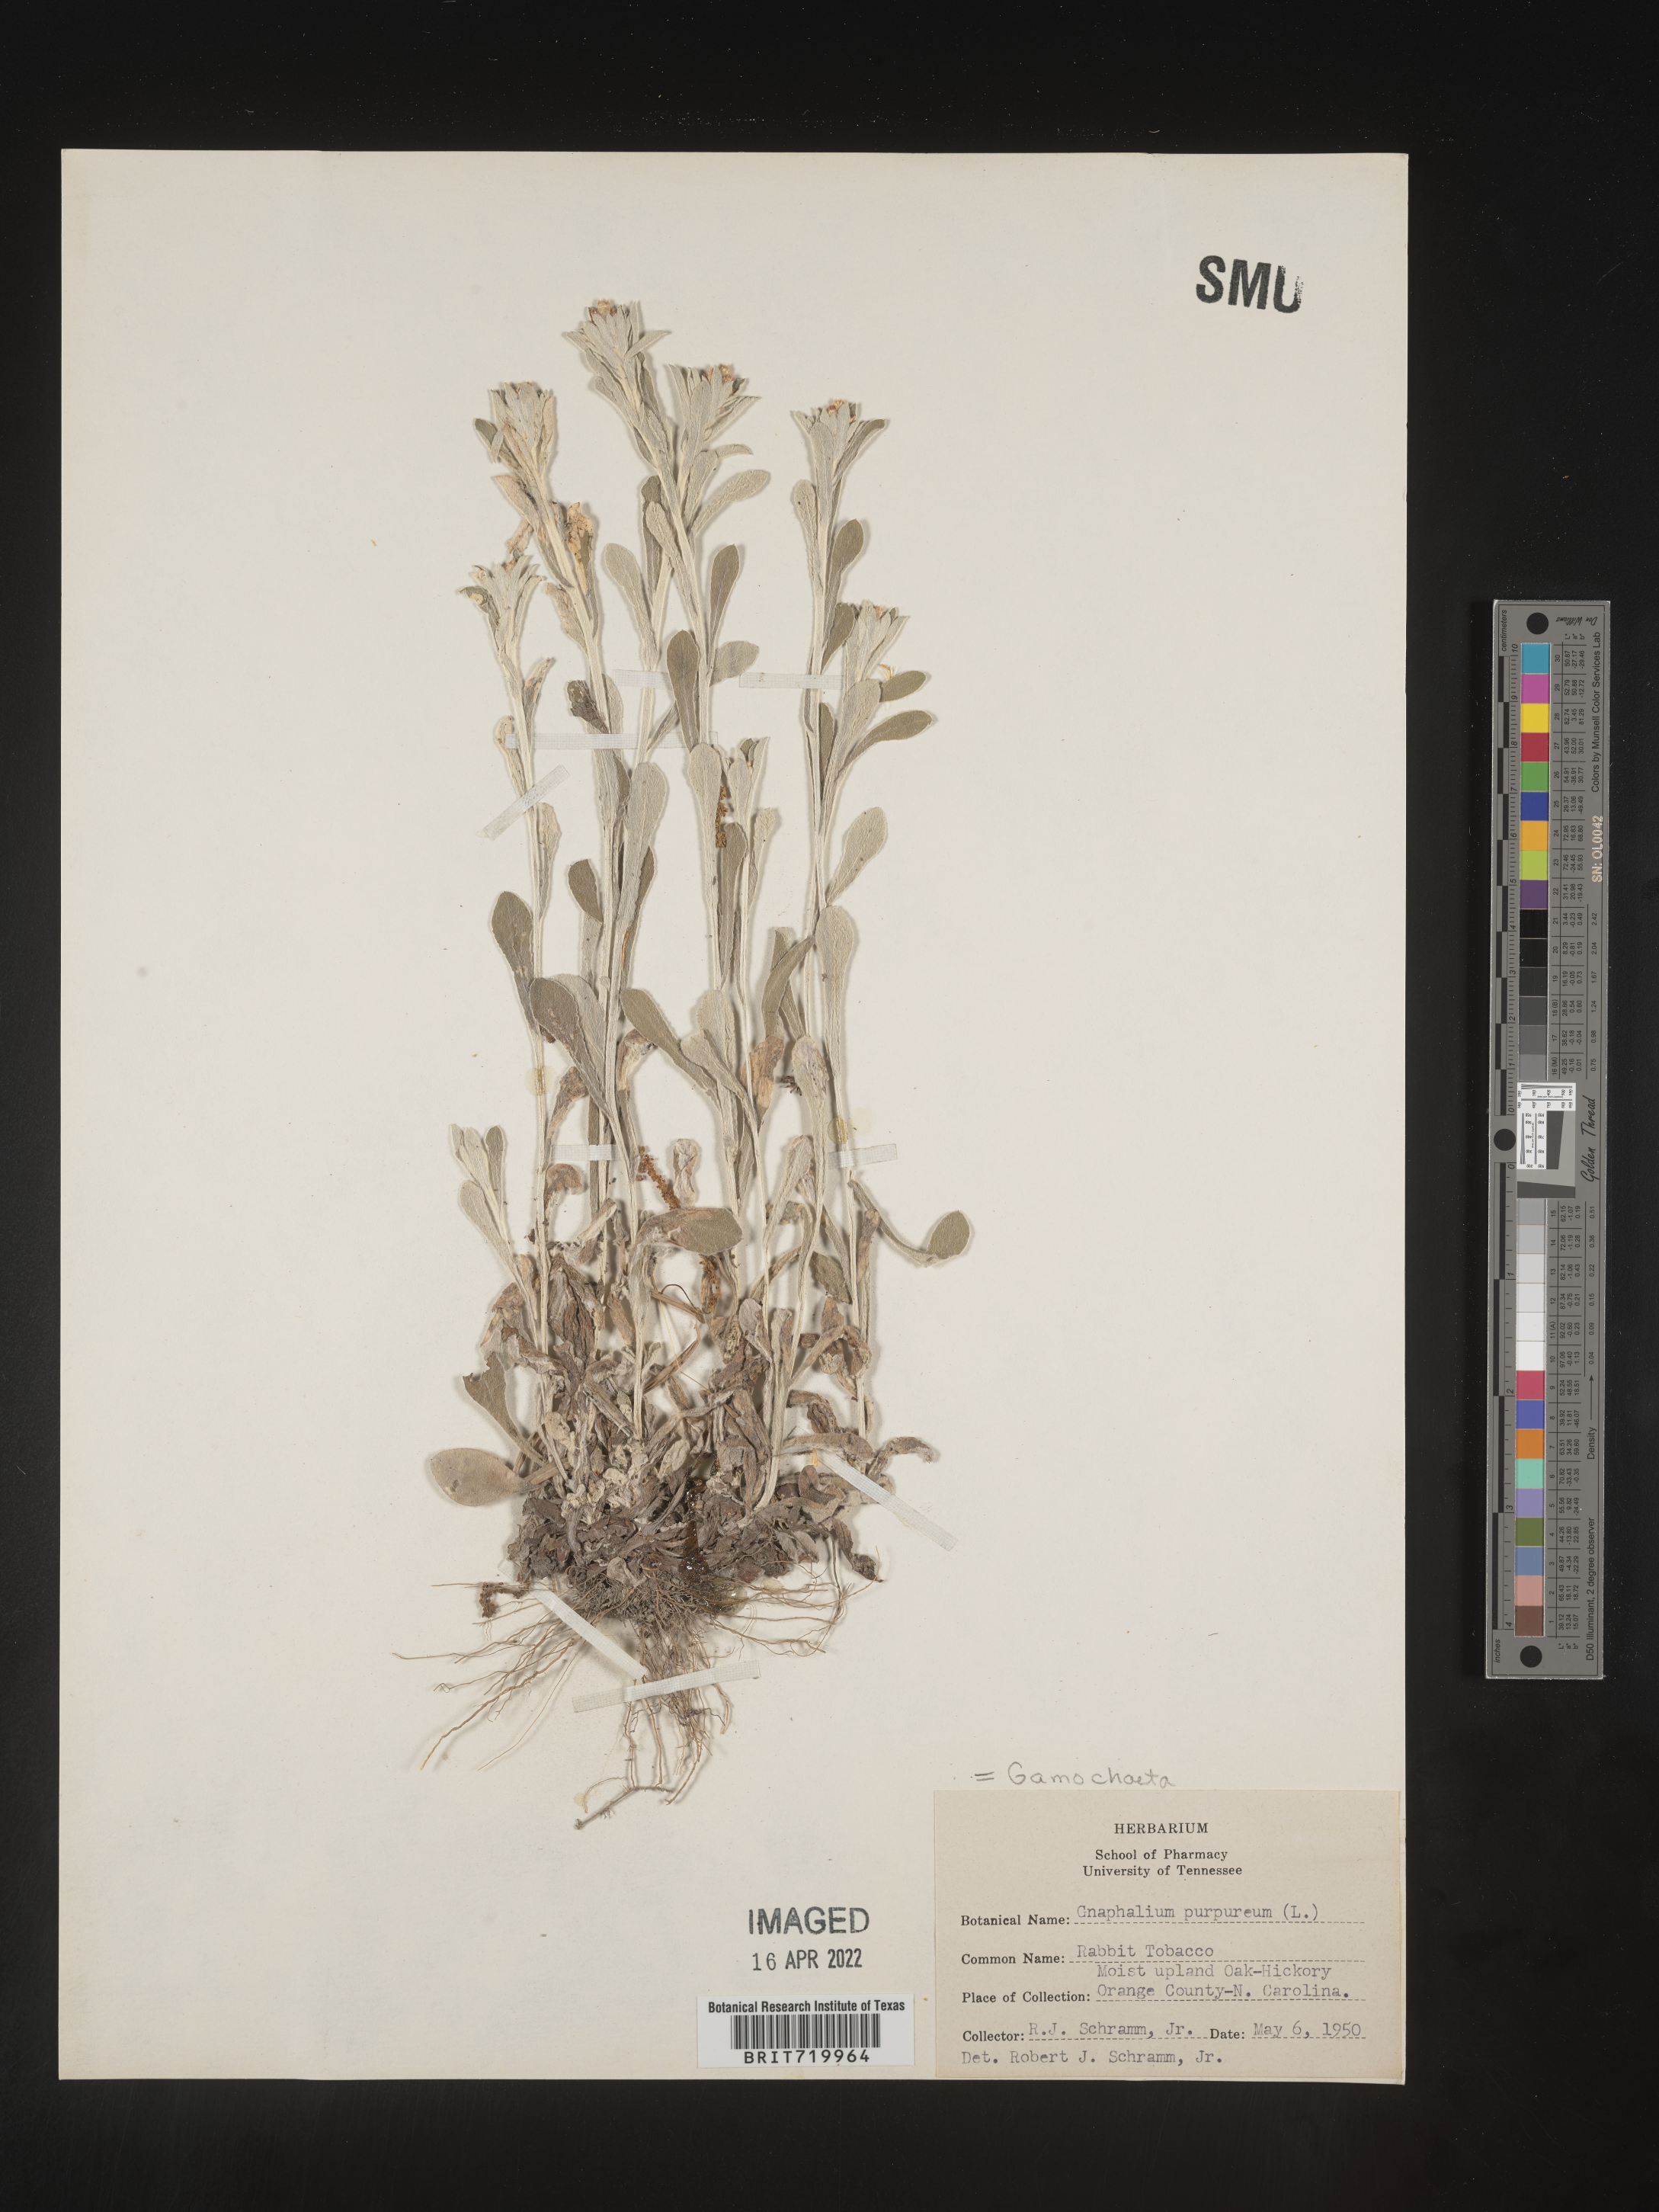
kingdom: Plantae
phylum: Tracheophyta
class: Magnoliopsida
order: Asterales
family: Asteraceae
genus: Gamochaeta
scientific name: Gamochaeta purpurea
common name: Purple cudweed
